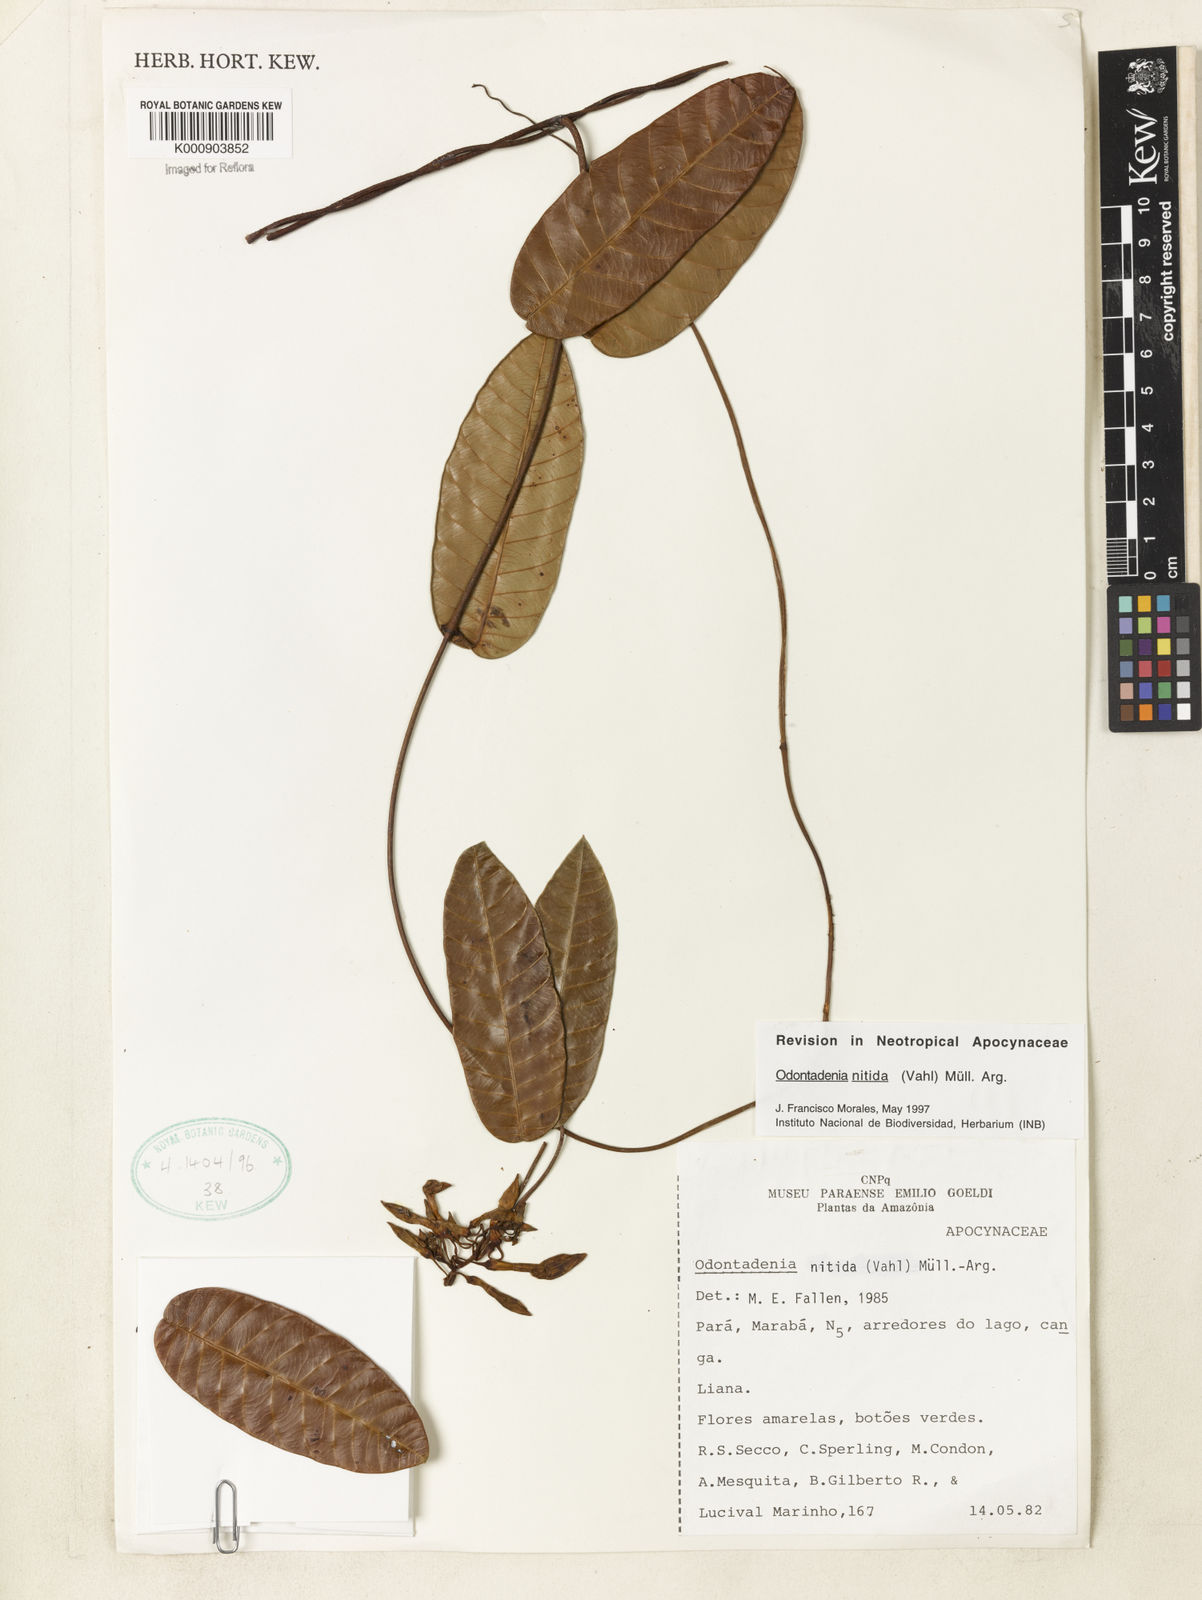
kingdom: Plantae
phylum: Tracheophyta
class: Magnoliopsida
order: Gentianales
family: Apocynaceae
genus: Odontadenia
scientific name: Odontadenia
